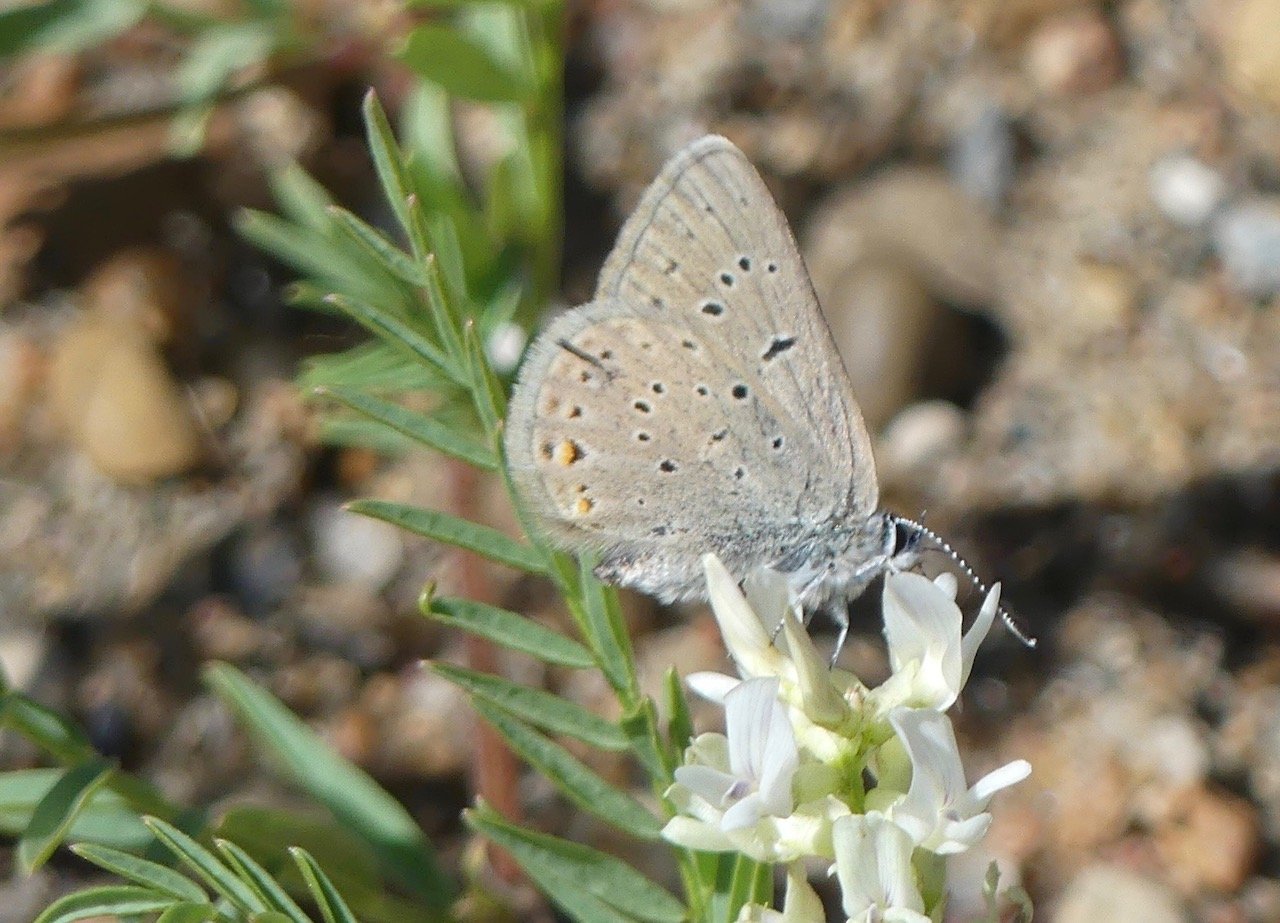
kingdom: Animalia
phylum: Arthropoda
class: Insecta
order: Lepidoptera
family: Lycaenidae
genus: Plebejus
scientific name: Plebejus saepiolus
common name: Greenish Blue
